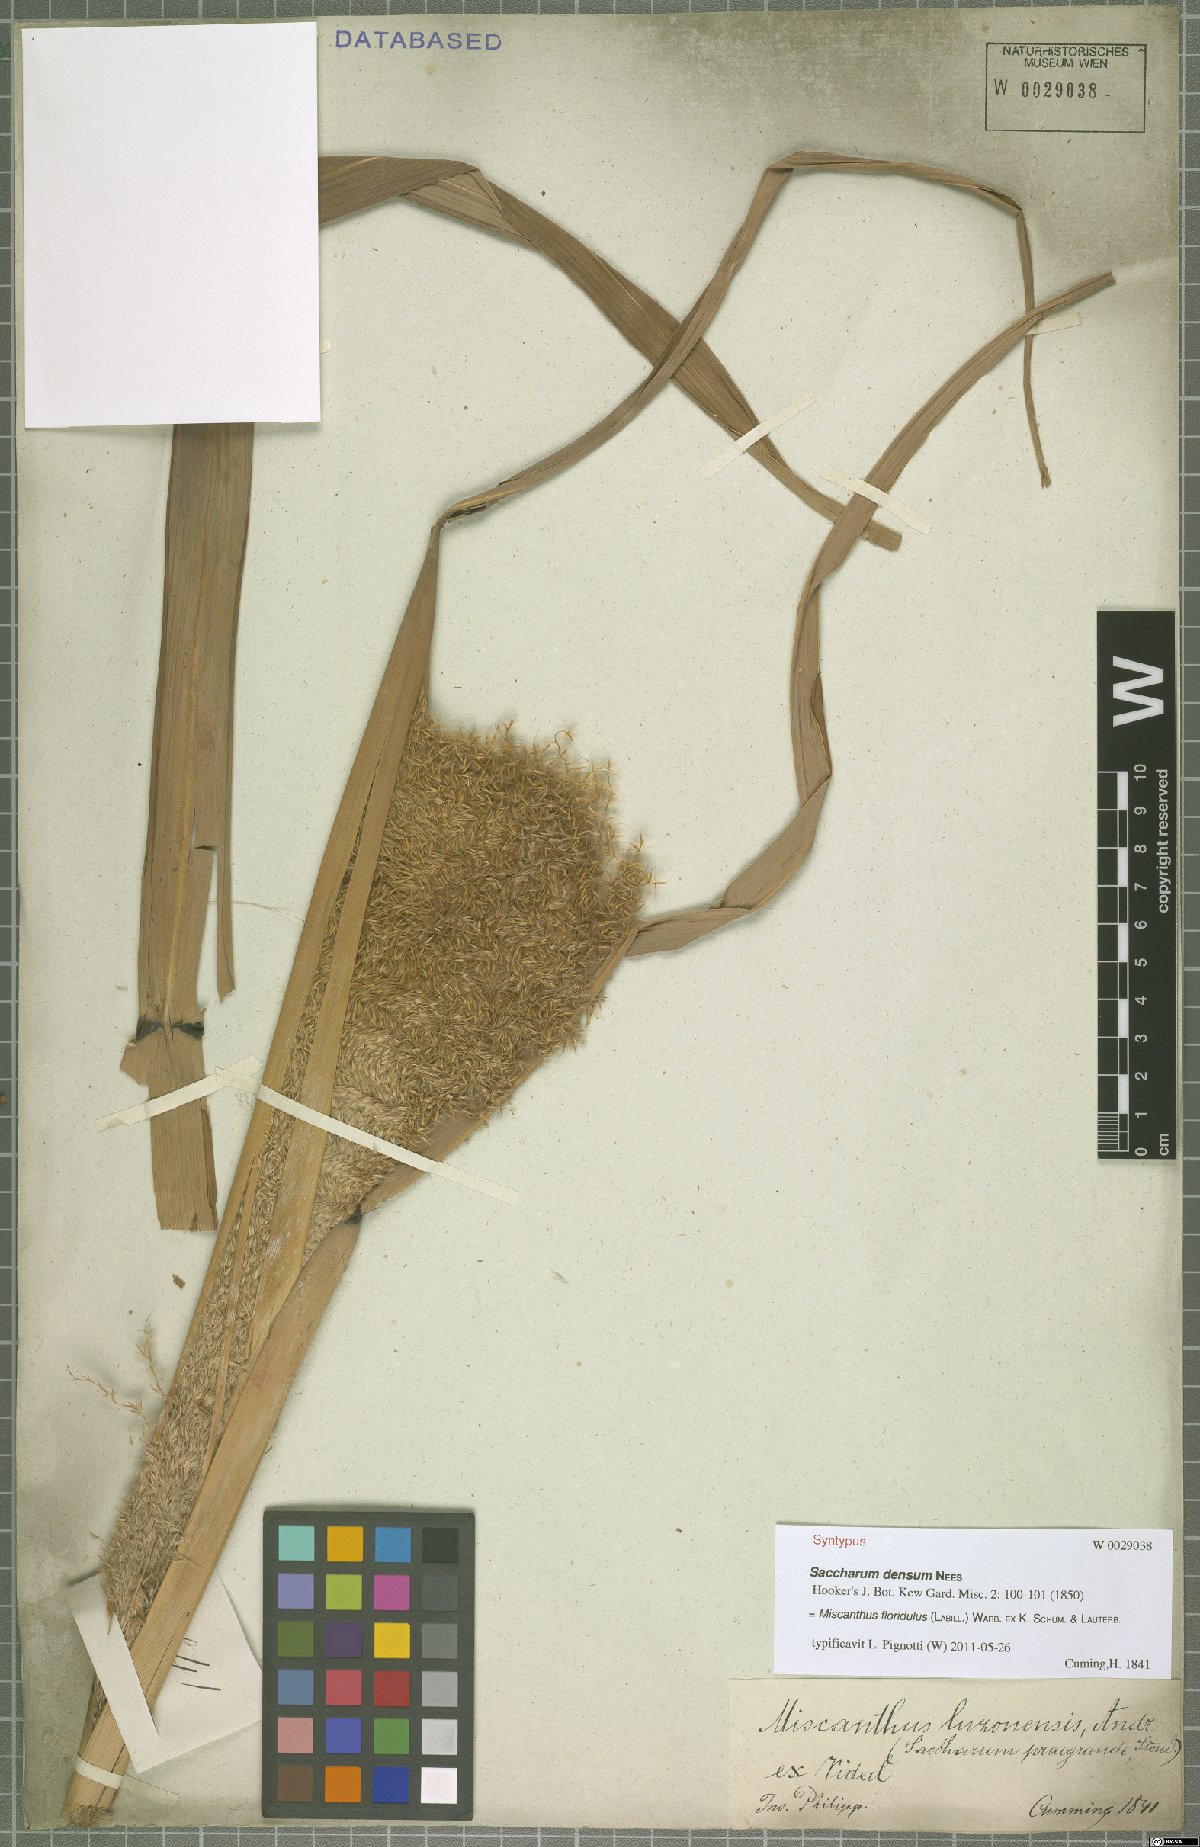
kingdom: Plantae
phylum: Tracheophyta
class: Liliopsida
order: Poales
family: Poaceae
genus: Miscanthus
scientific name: Miscanthus floridulus
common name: Pacific island silvergrass
